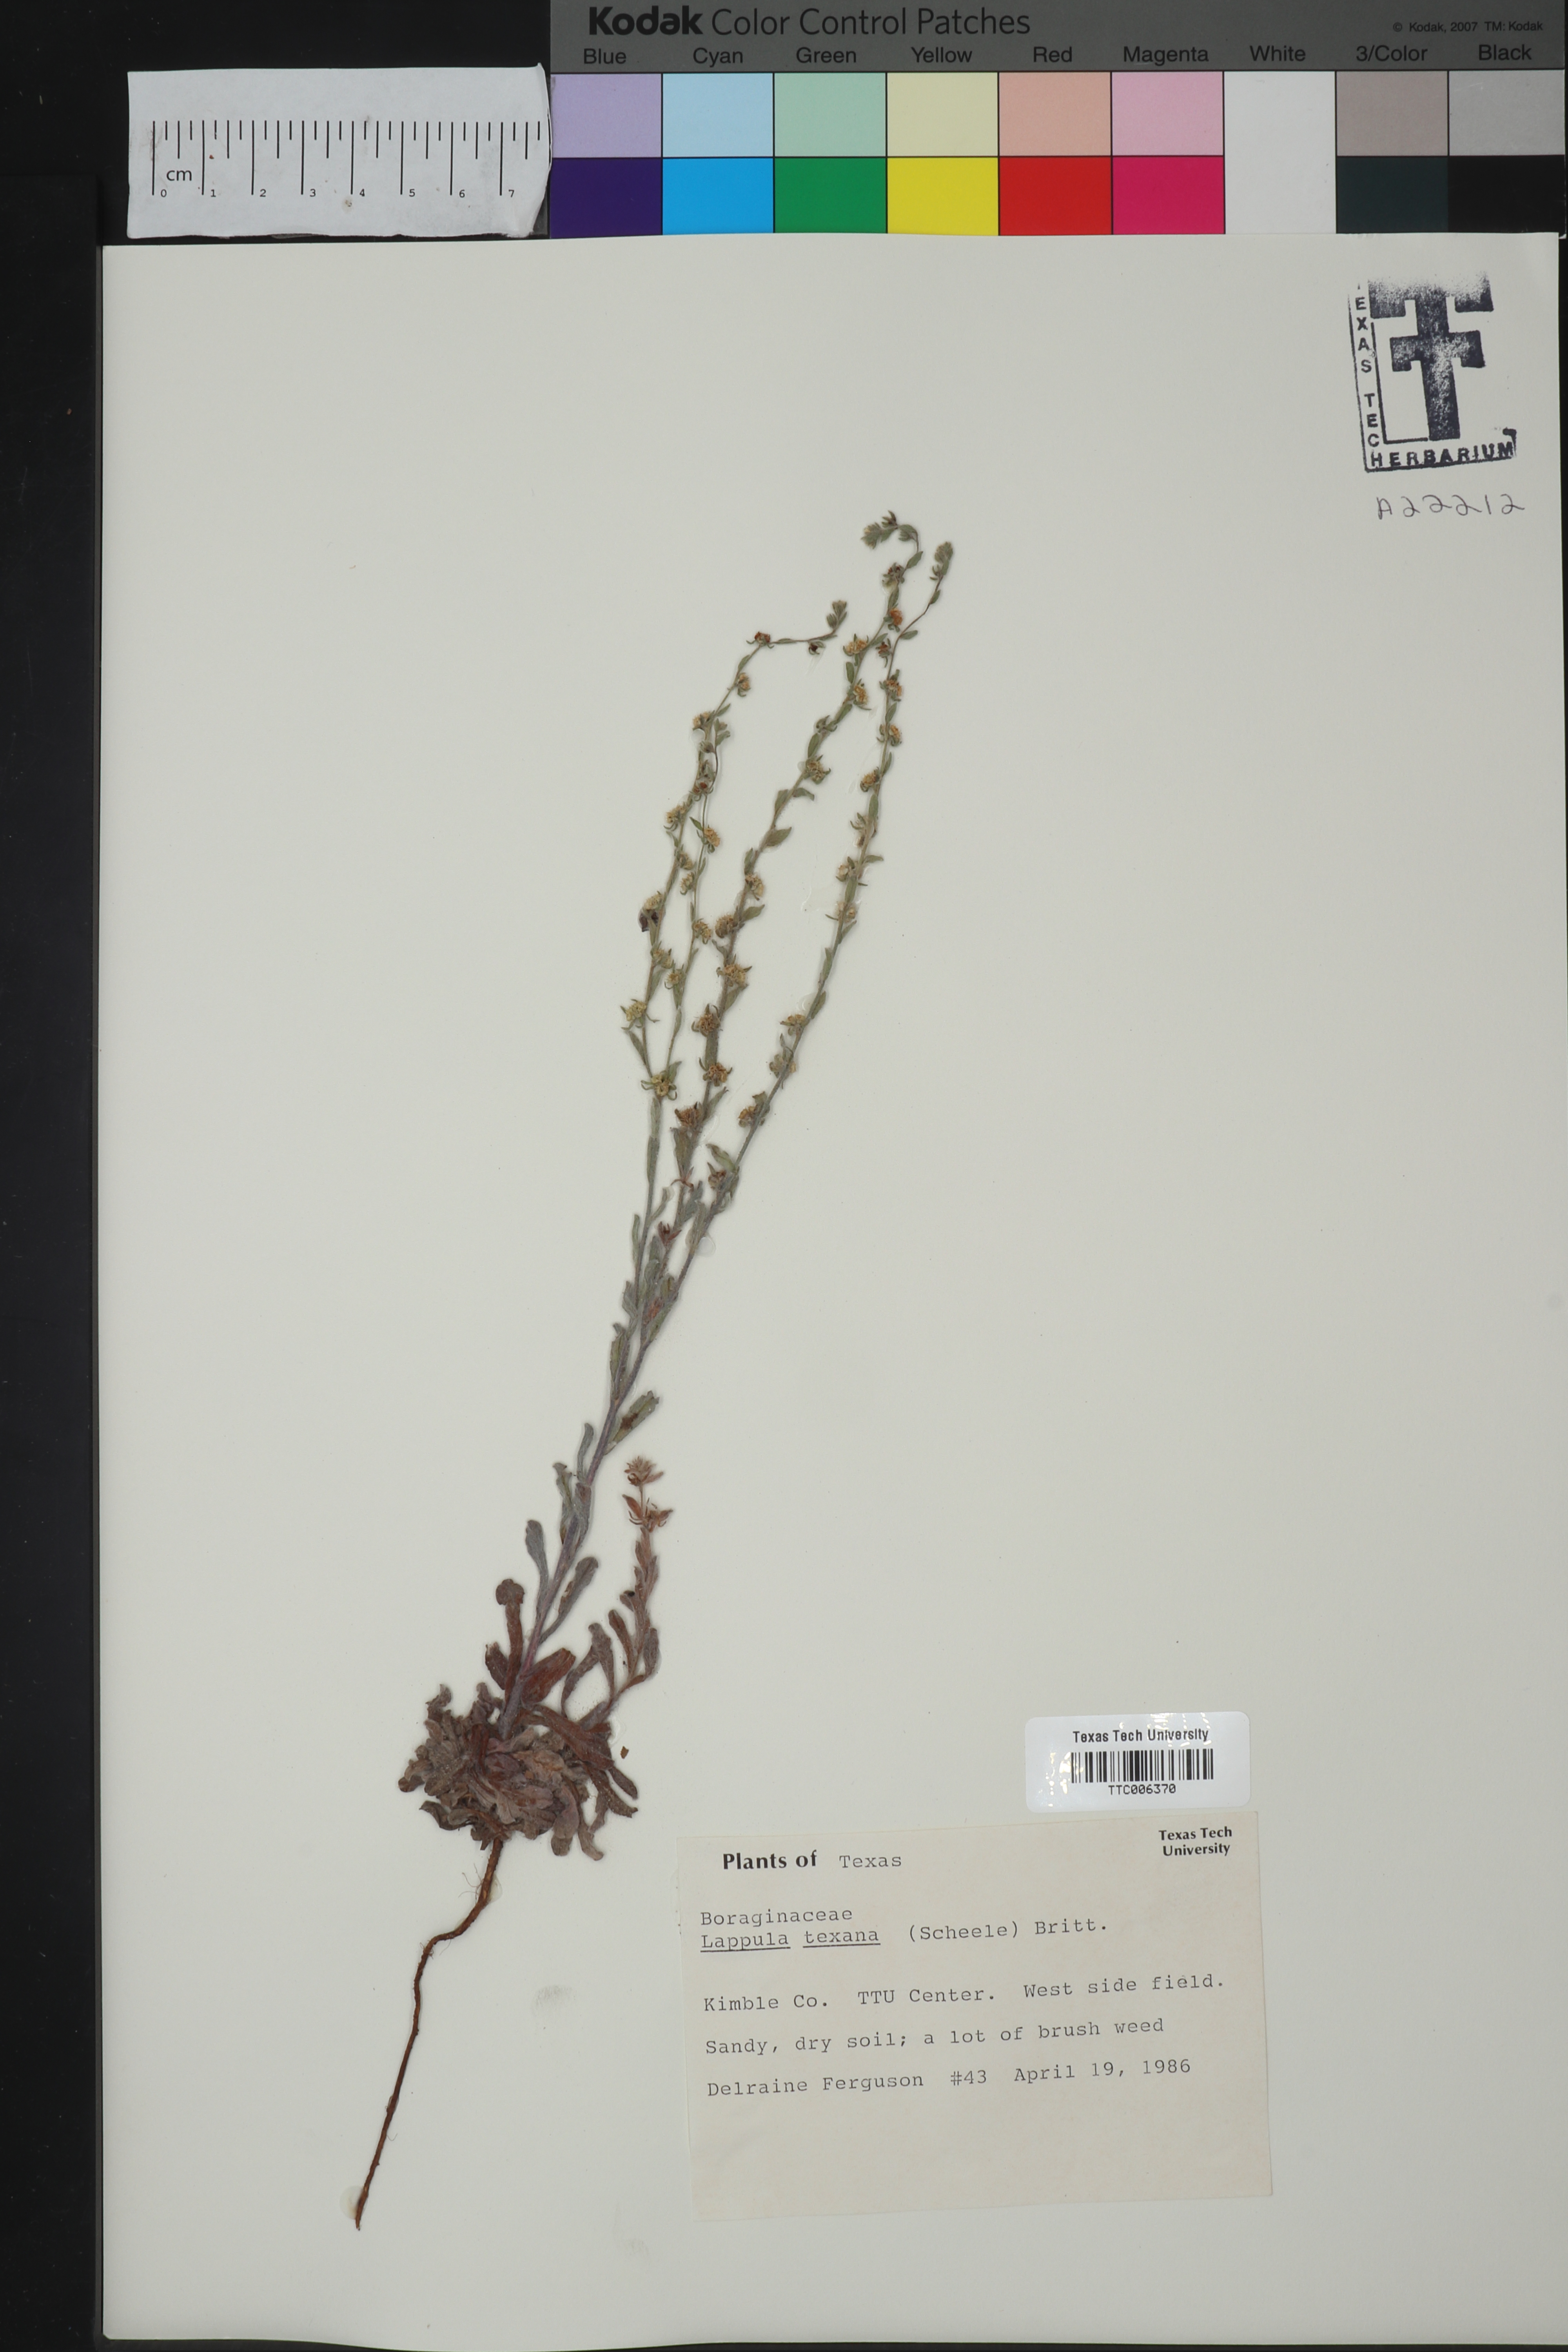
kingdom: Plantae
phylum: Tracheophyta
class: Magnoliopsida
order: Boraginales
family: Boraginaceae
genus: Lappula
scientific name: Lappula occidentalis
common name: Western stickseed
